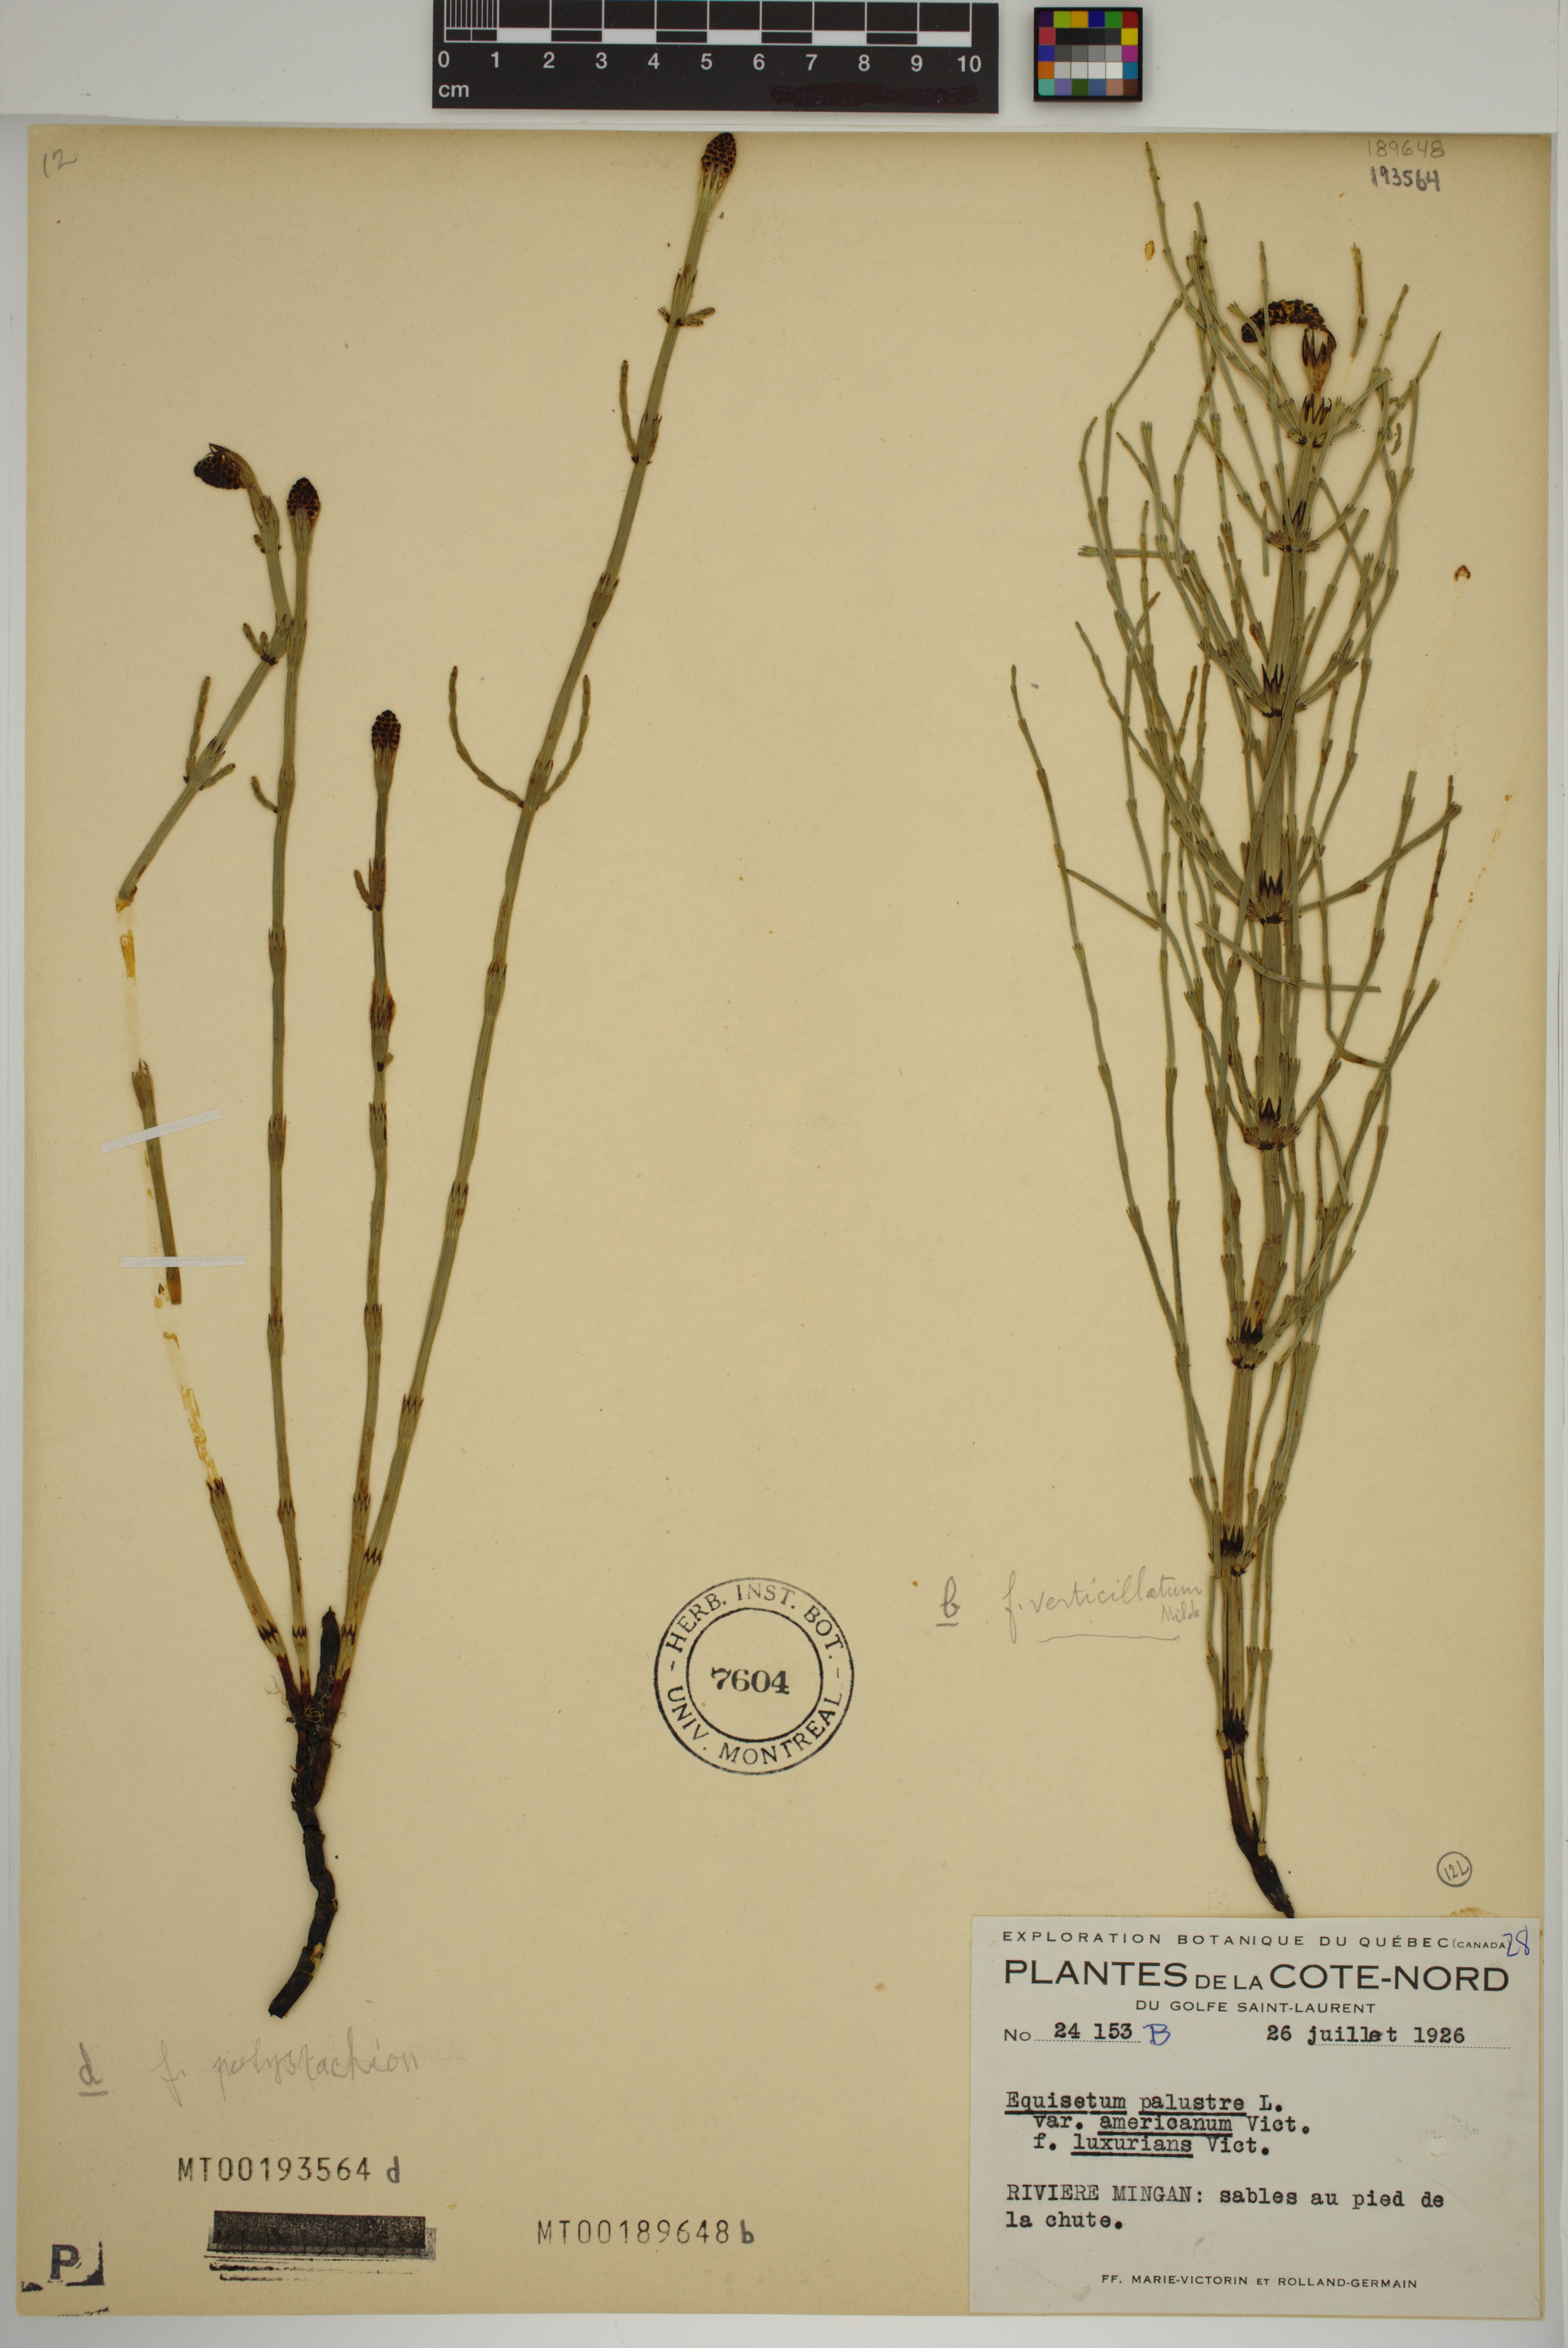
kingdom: Plantae
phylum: Tracheophyta
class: Polypodiopsida
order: Equisetales
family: Equisetaceae
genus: Equisetum
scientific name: Equisetum palustre
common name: Marsh horsetail
